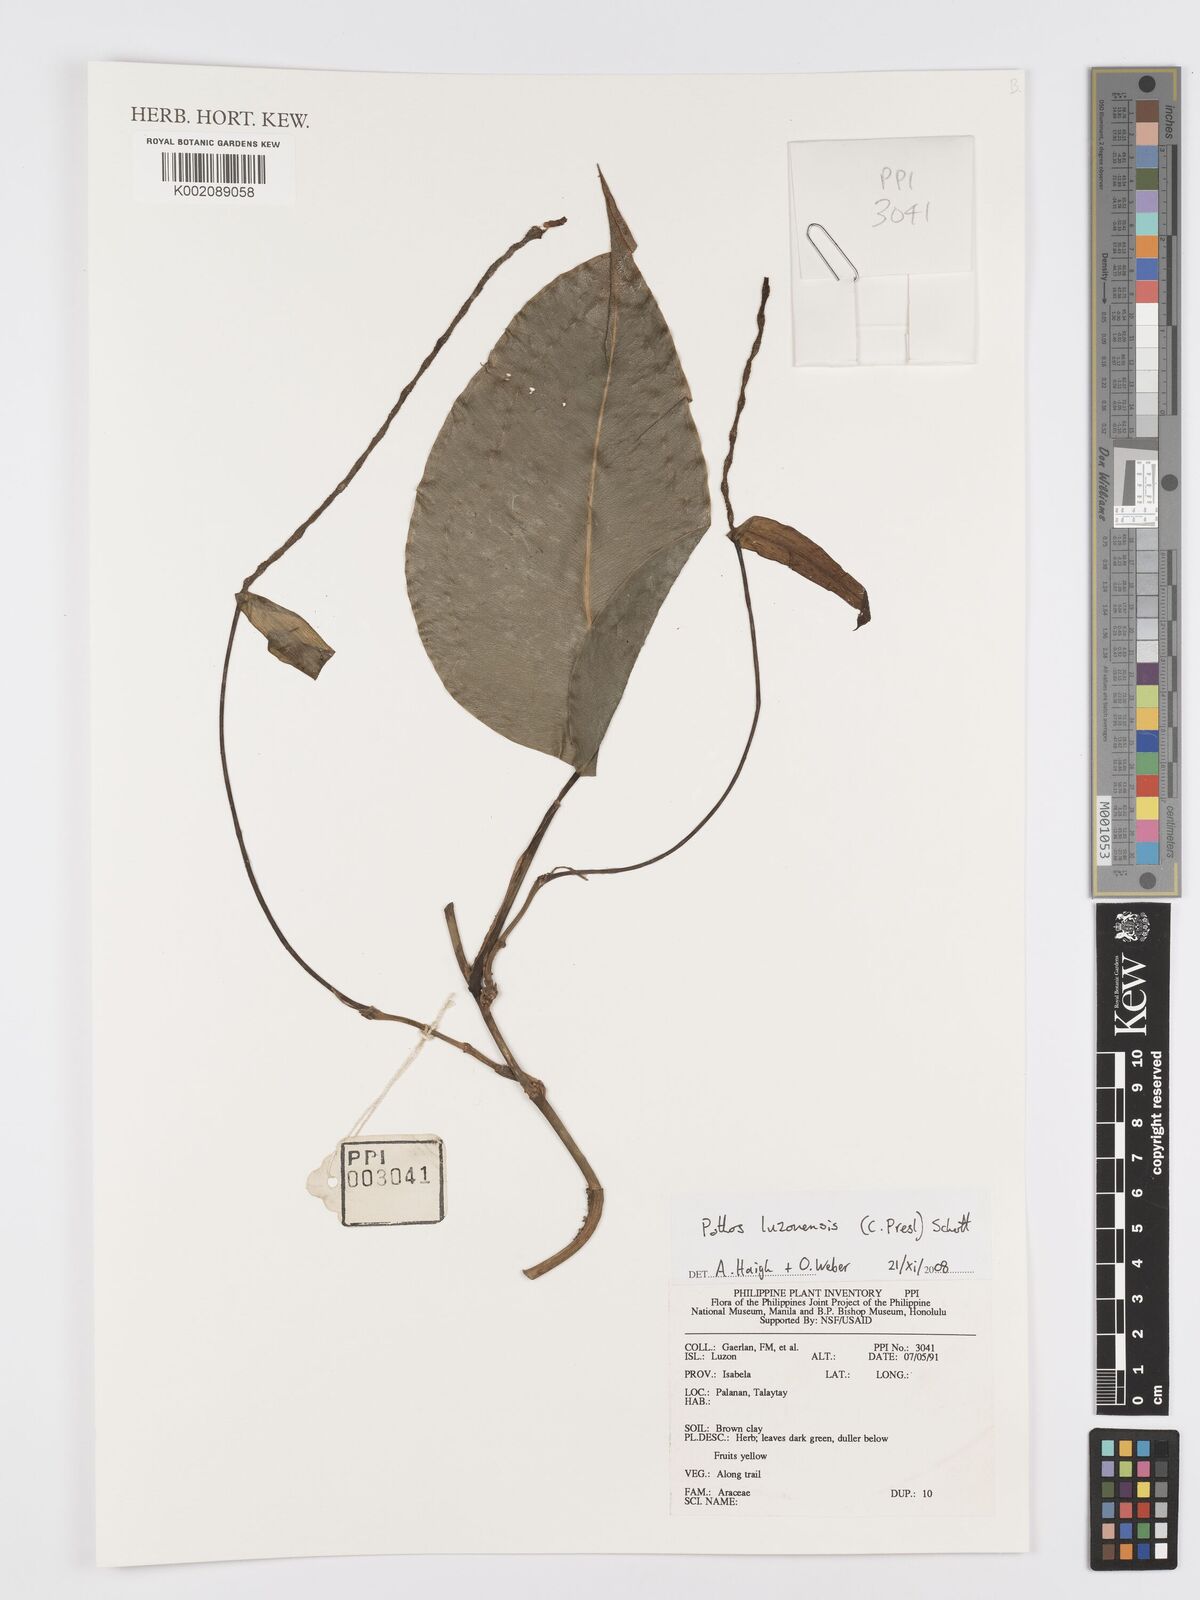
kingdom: Plantae
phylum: Tracheophyta
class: Liliopsida
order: Alismatales
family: Araceae
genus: Pothos
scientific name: Pothos luzonensis
